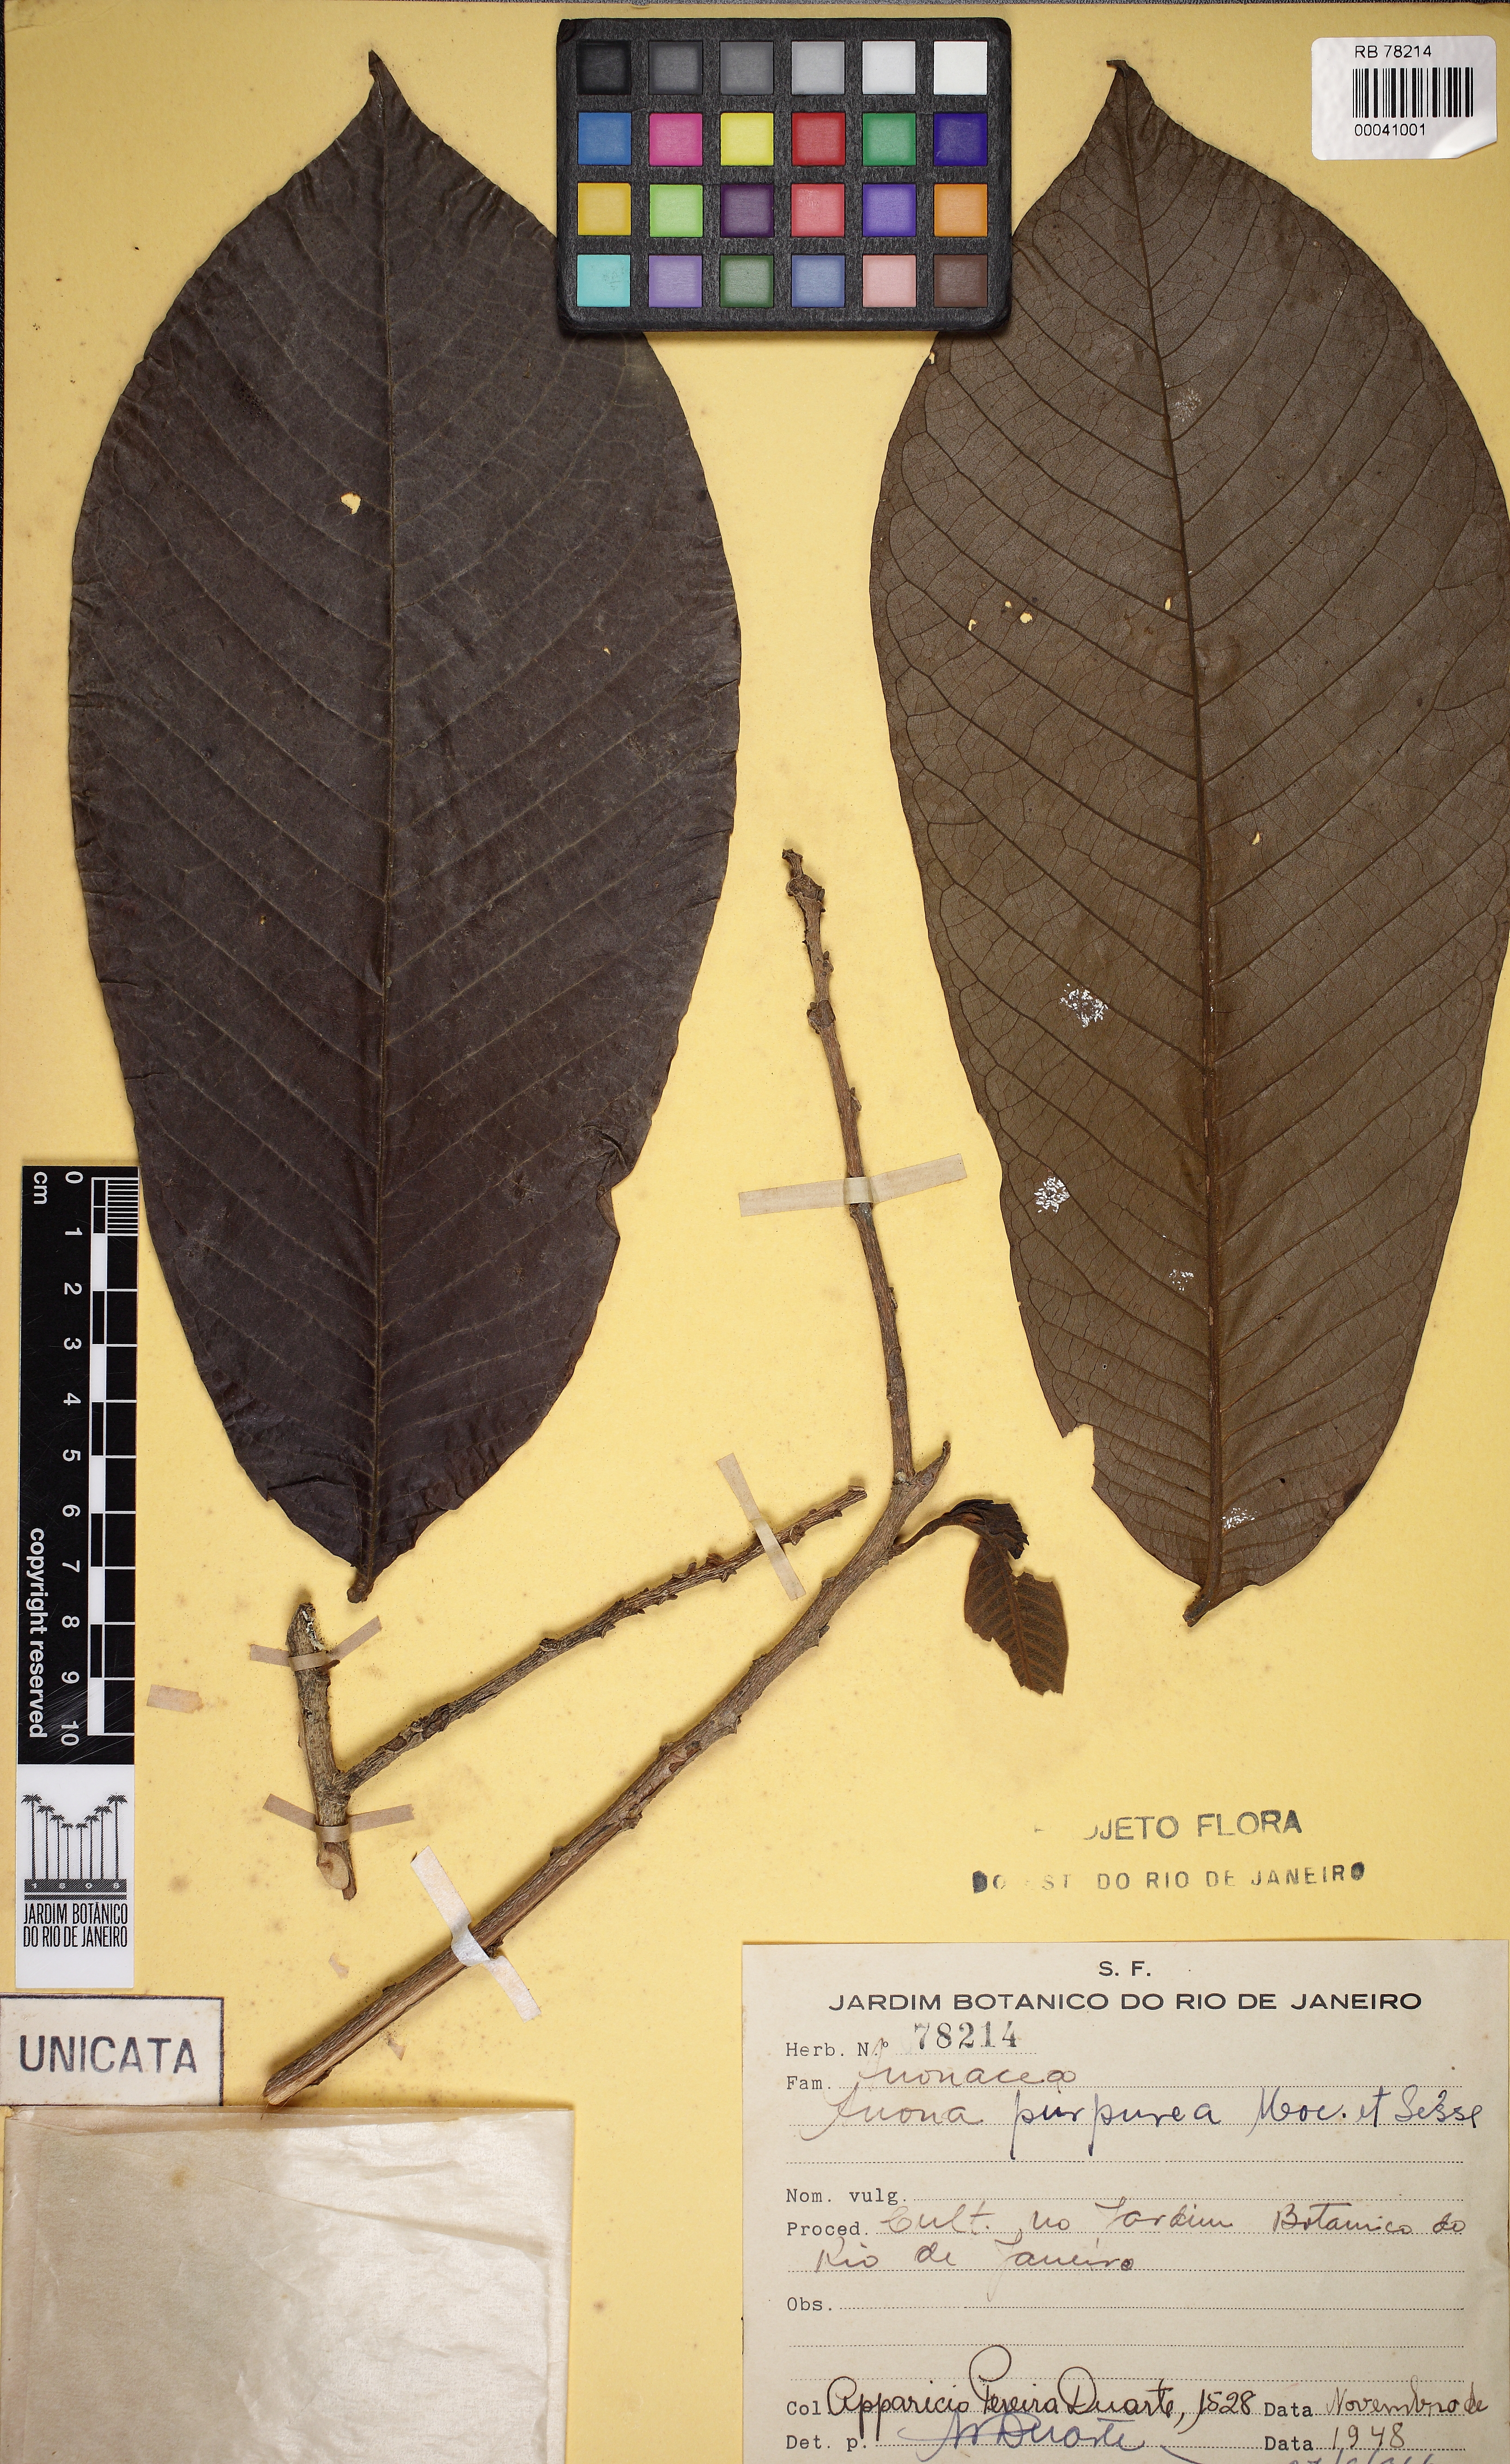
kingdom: Plantae
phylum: Tracheophyta
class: Magnoliopsida
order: Magnoliales
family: Annonaceae
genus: Annona
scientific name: Annona purpurea
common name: Negrohead
